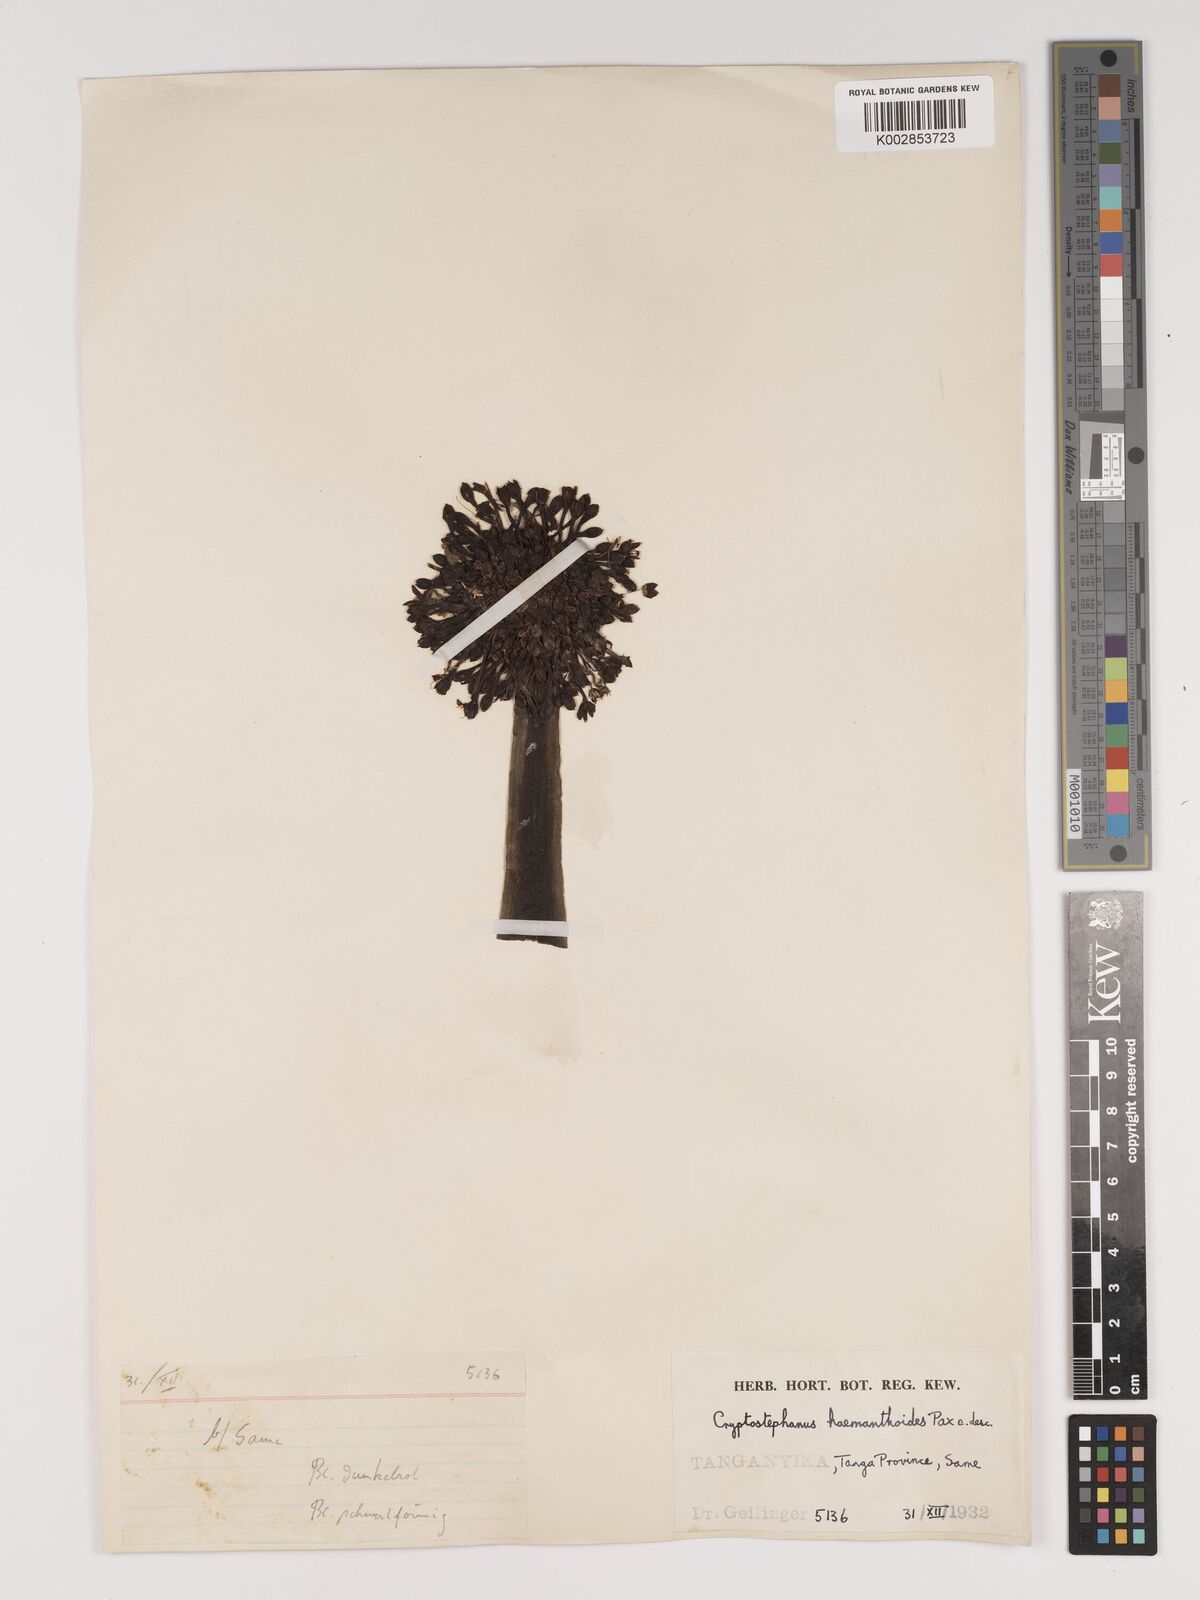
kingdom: Plantae
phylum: Tracheophyta
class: Liliopsida
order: Asparagales
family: Amaryllidaceae
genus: Cryptostephanus
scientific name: Cryptostephanus haemanthoides
